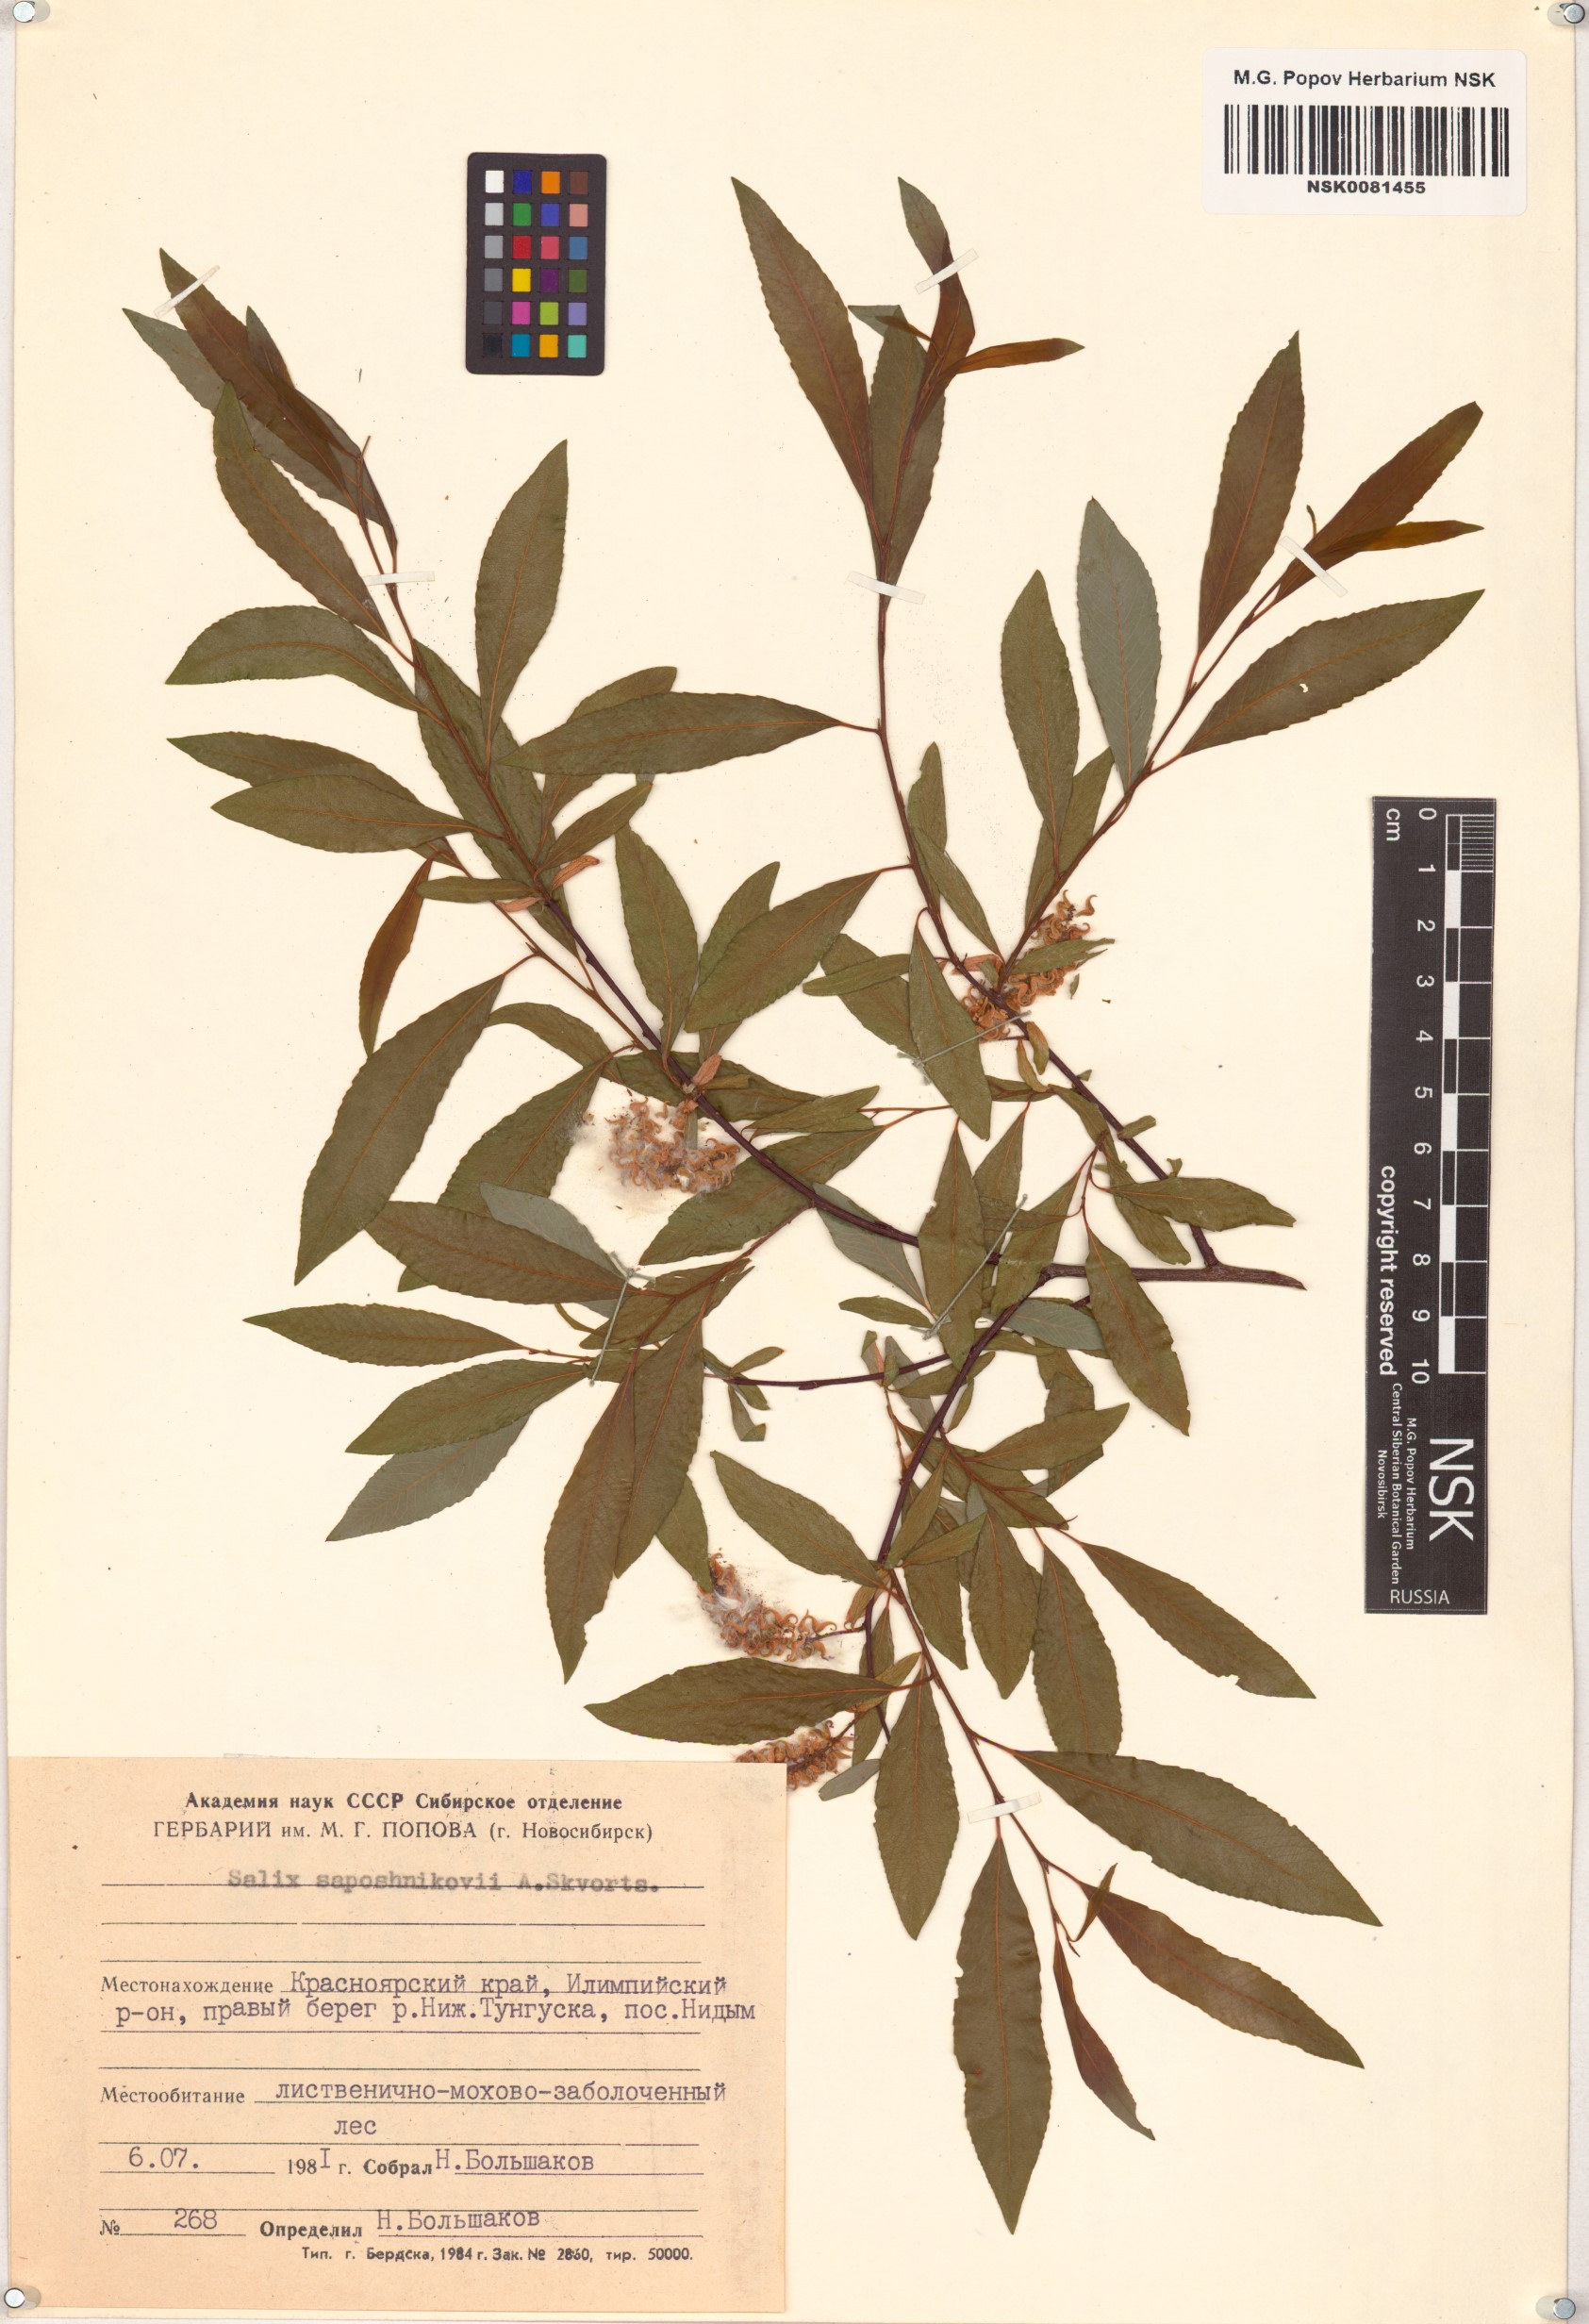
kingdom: Plantae
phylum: Tracheophyta
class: Magnoliopsida
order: Malpighiales
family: Salicaceae
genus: Salix
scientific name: Salix saposhnikovii
